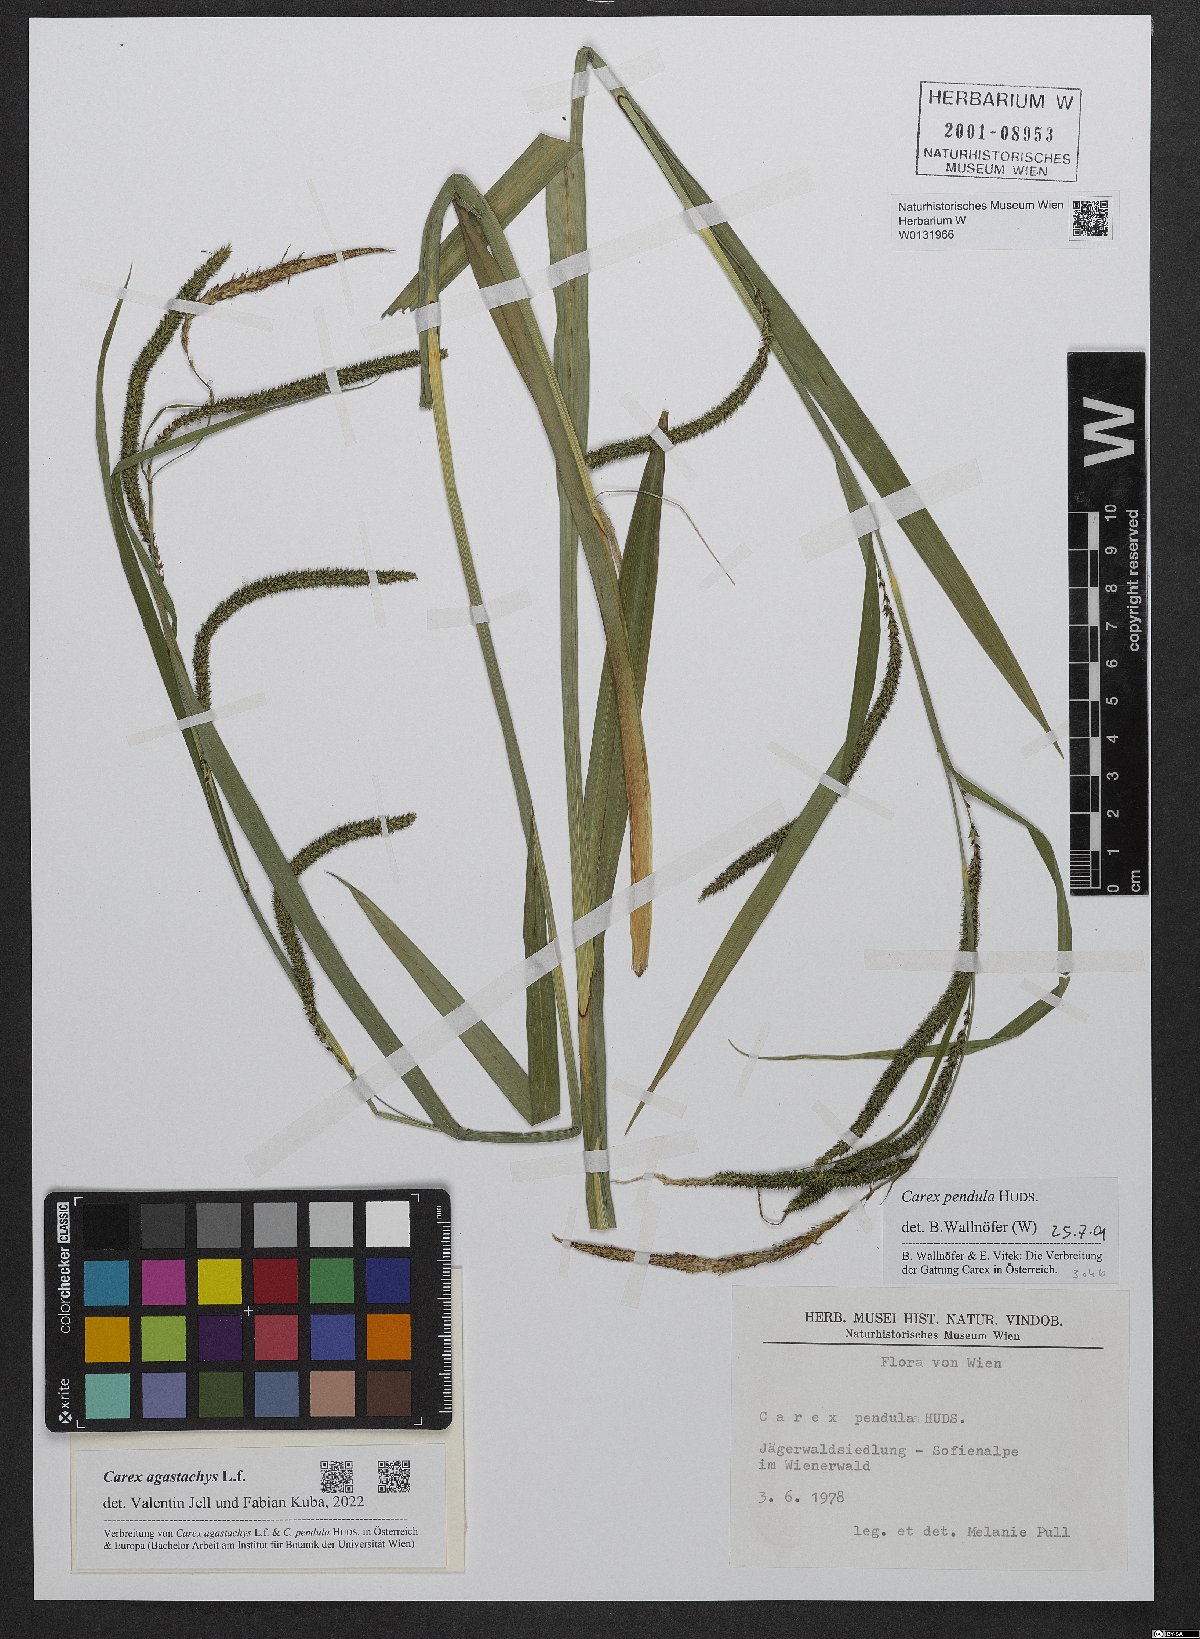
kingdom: Plantae
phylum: Tracheophyta
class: Liliopsida
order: Poales
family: Cyperaceae
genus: Carex
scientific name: Carex agastachys
